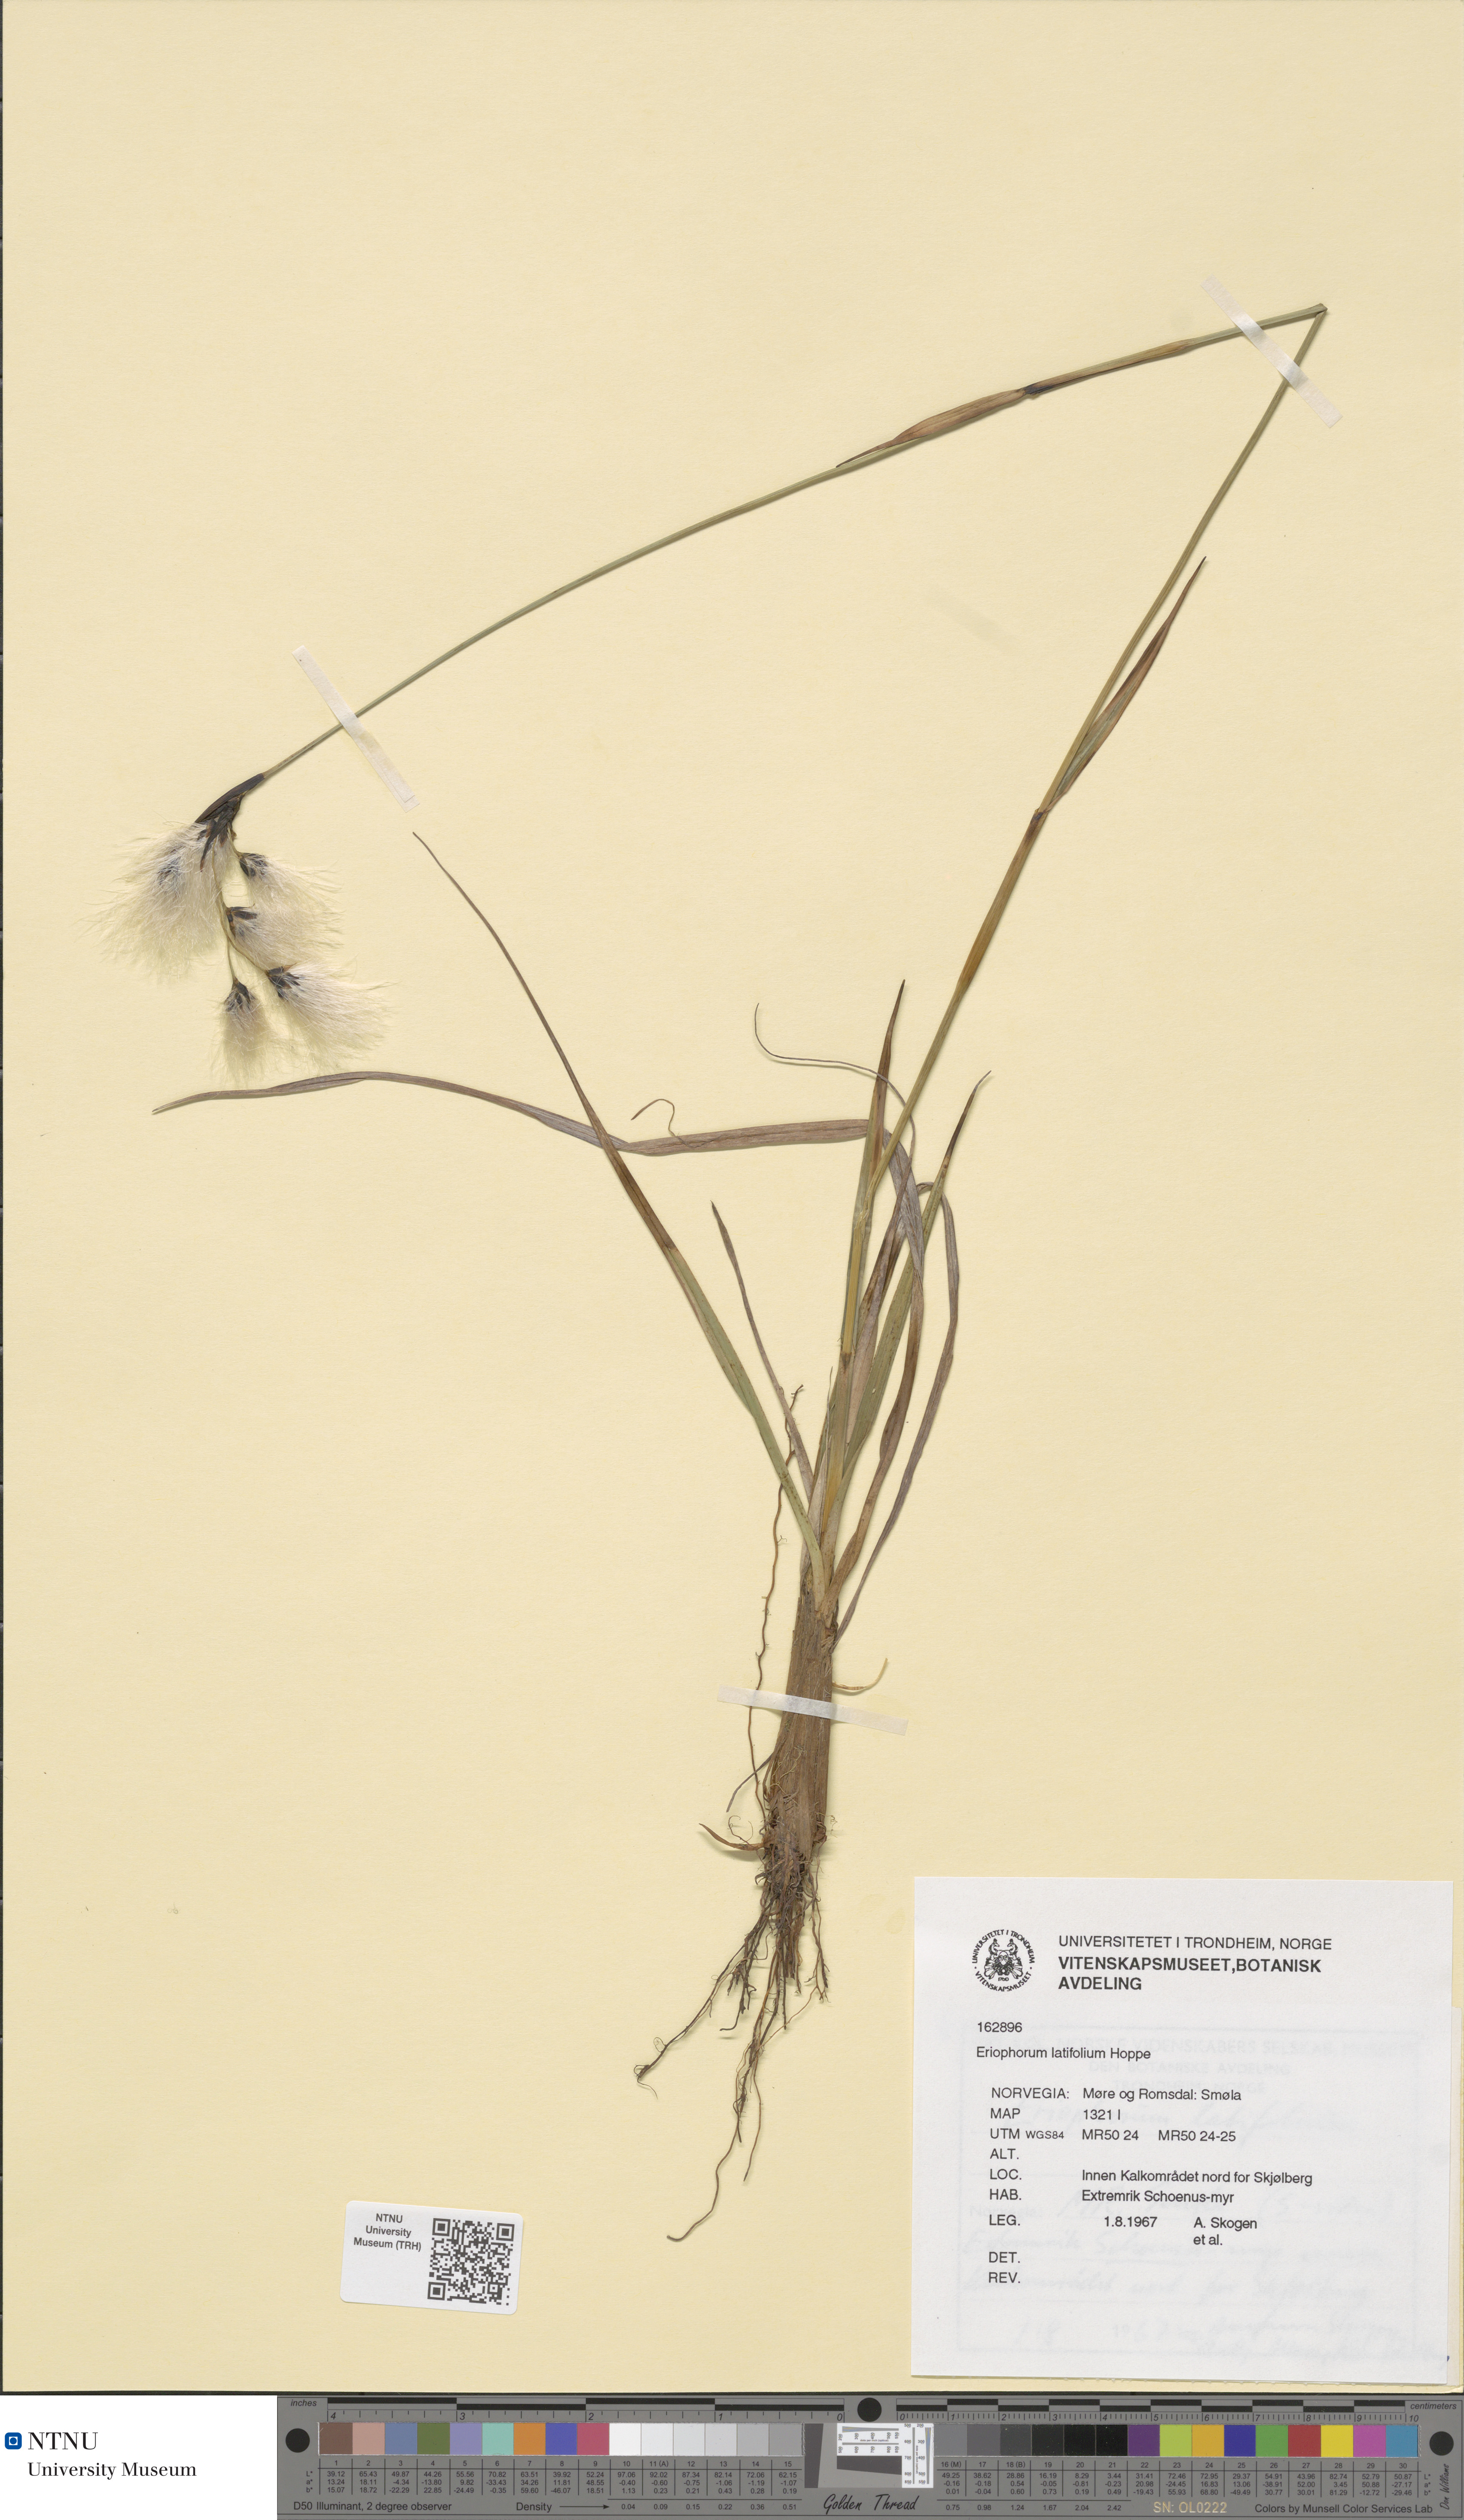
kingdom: Plantae
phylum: Tracheophyta
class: Liliopsida
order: Poales
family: Cyperaceae
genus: Eriophorum
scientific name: Eriophorum latifolium
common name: Broad-leaved cottongrass
